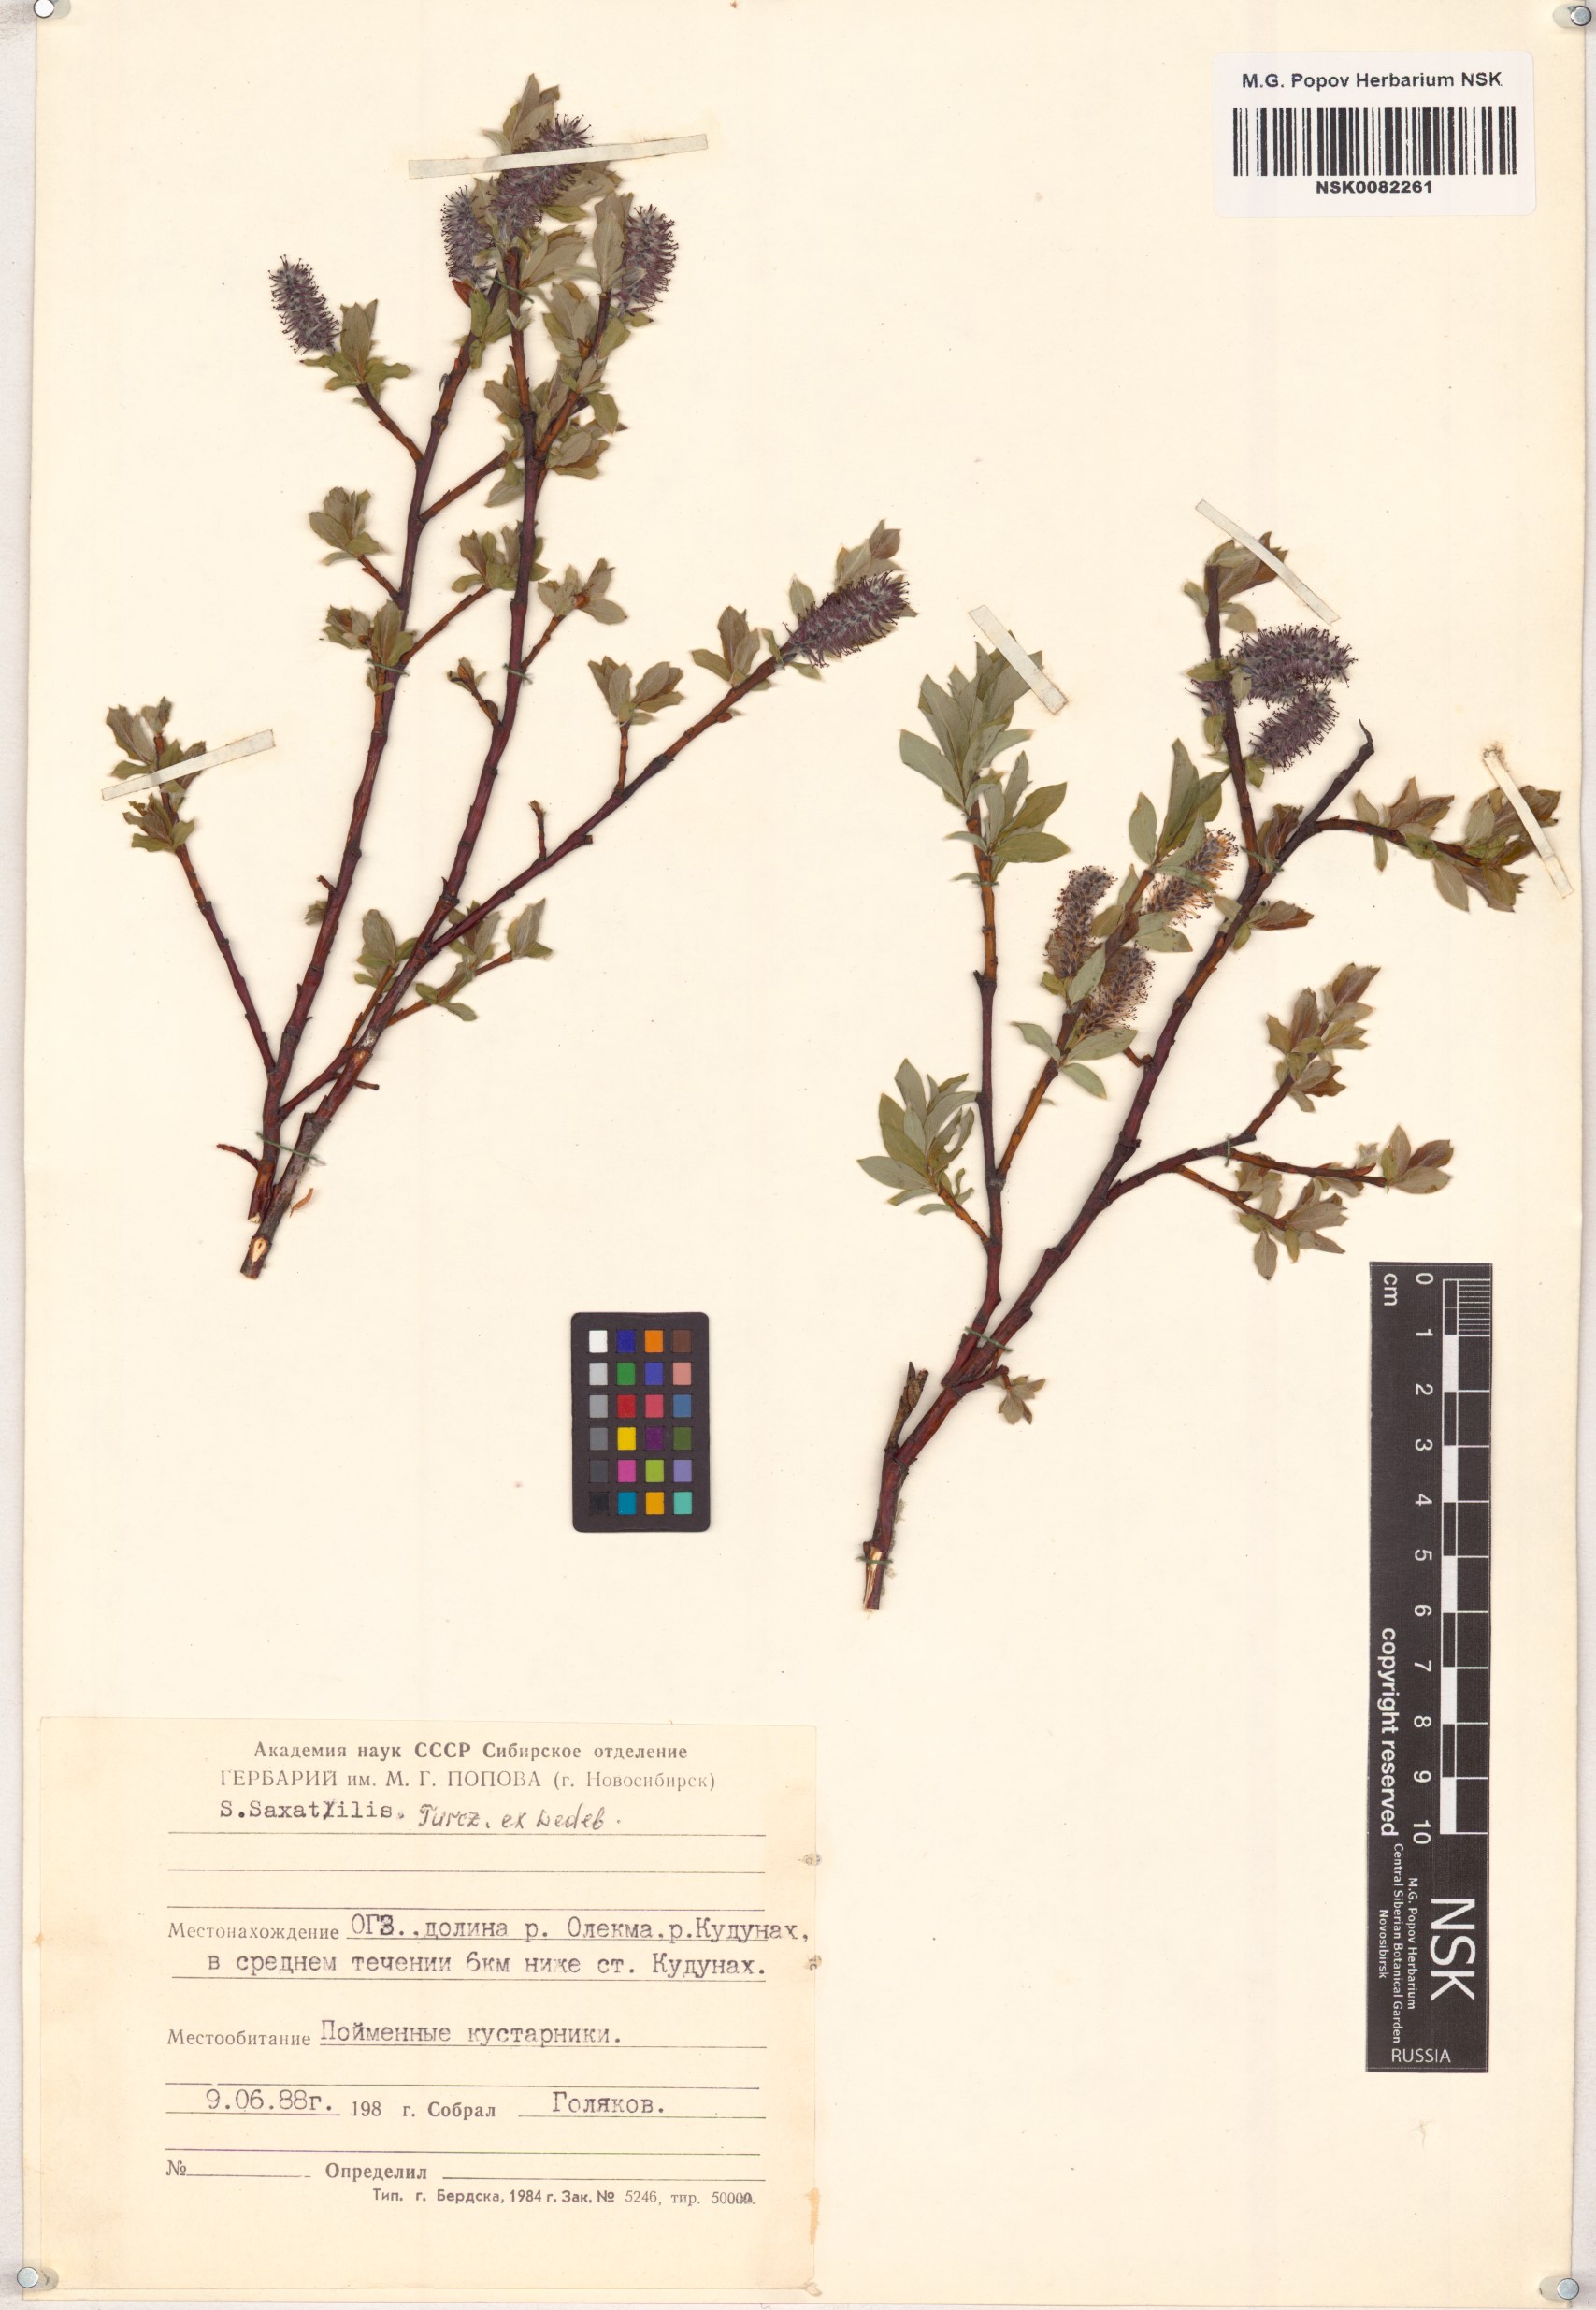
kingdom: Plantae
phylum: Tracheophyta
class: Magnoliopsida
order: Malpighiales
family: Salicaceae
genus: Salix
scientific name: Salix saxatilis
